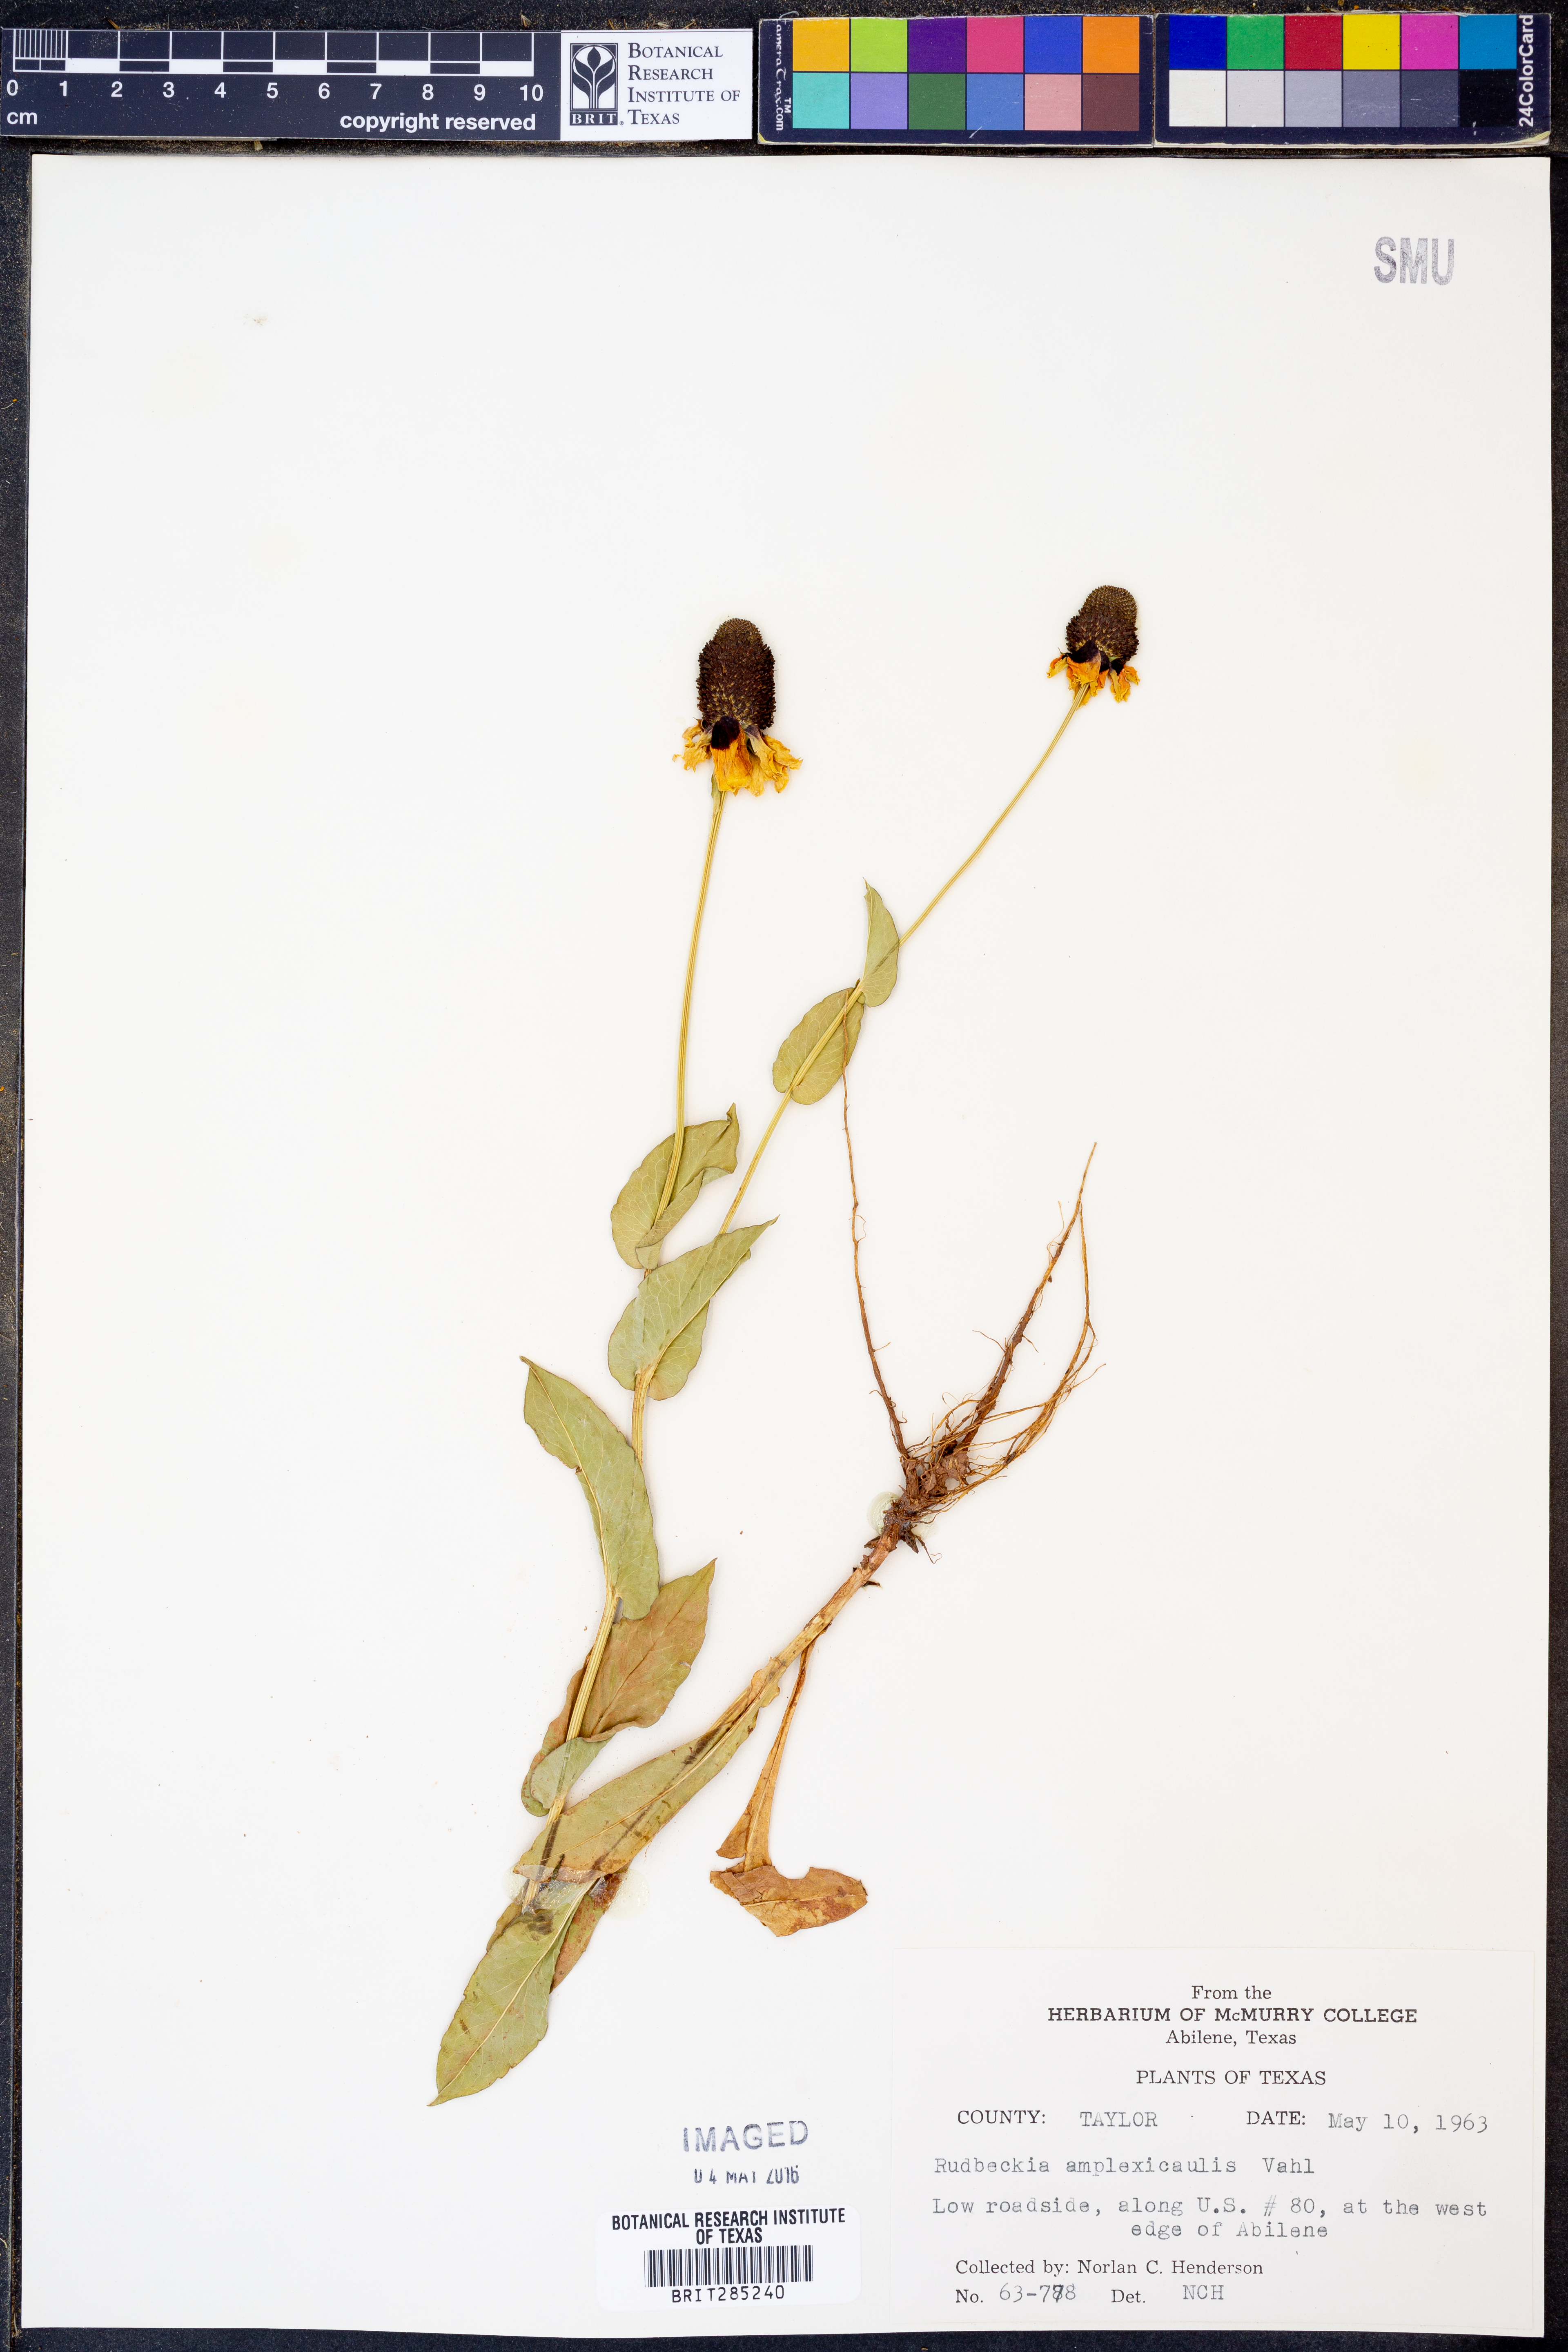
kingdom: Plantae
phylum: Tracheophyta
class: Magnoliopsida
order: Asterales
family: Asteraceae
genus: Rudbeckia
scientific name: Rudbeckia amplexicaulis
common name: Clasping-leaf coneflower
